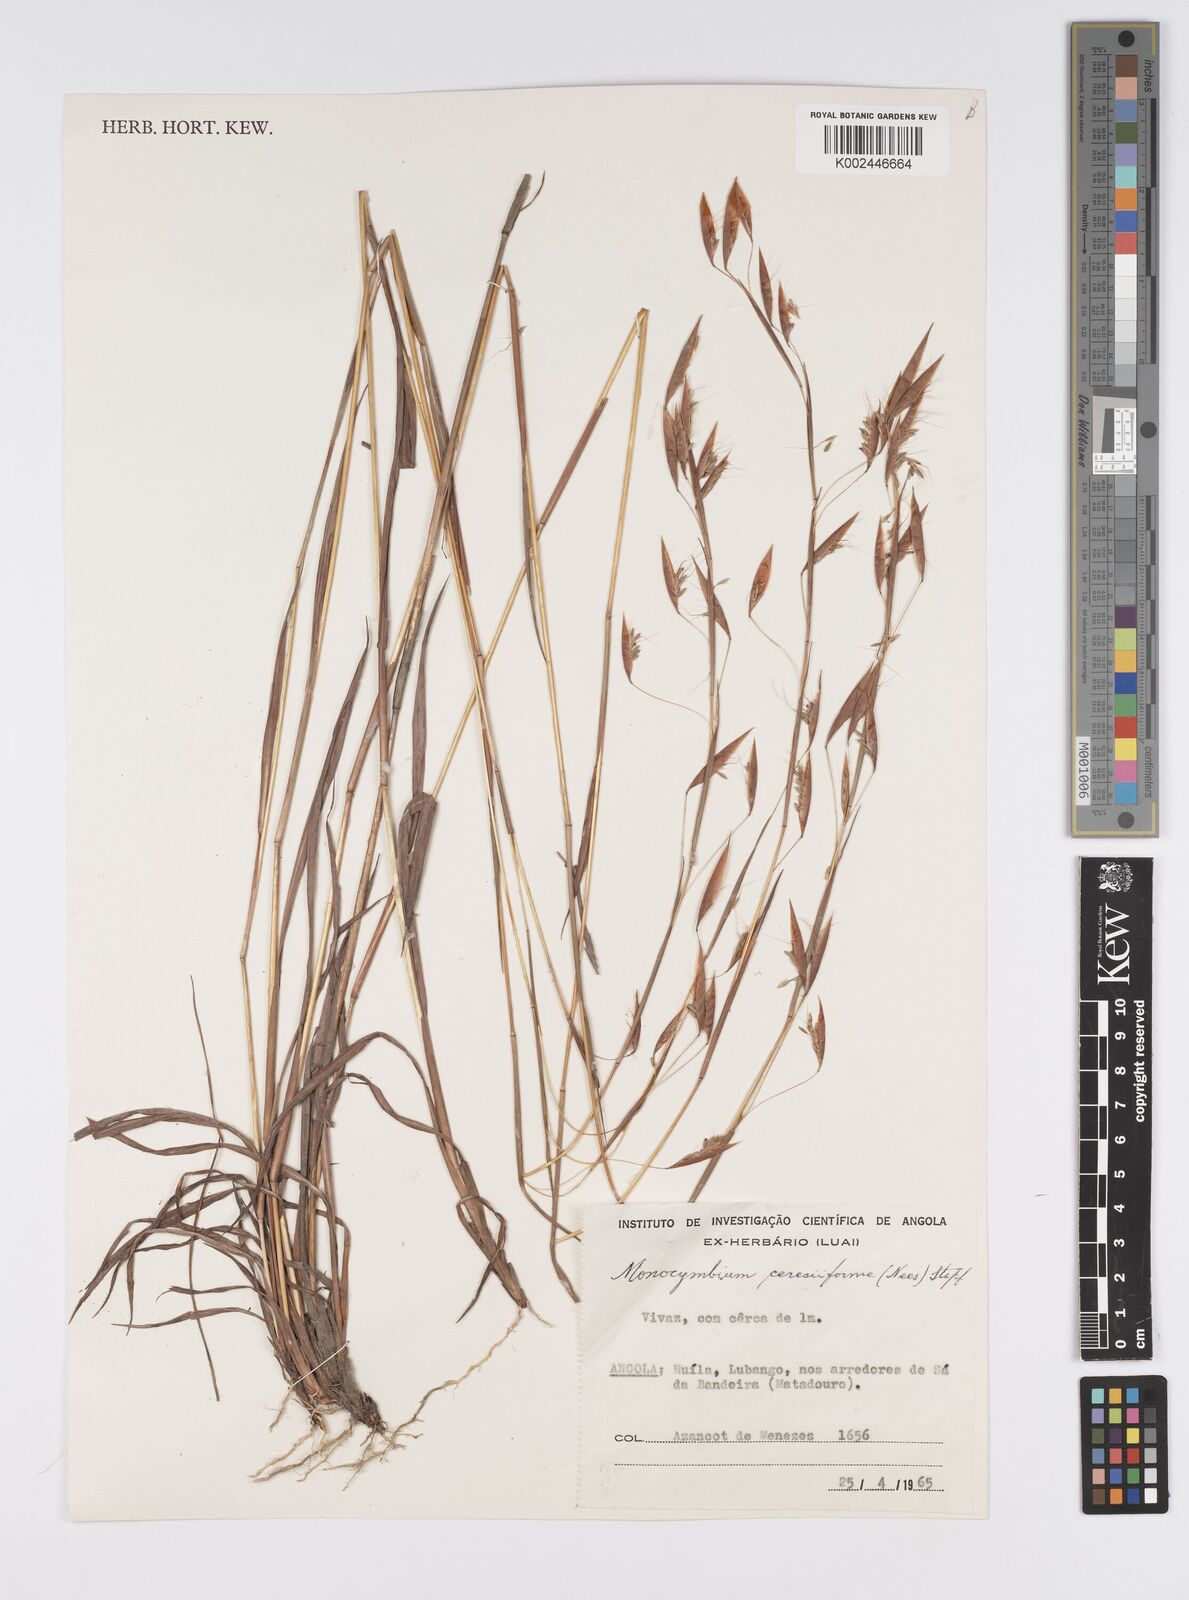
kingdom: Plantae
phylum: Tracheophyta
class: Liliopsida
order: Poales
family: Poaceae
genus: Monocymbium
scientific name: Monocymbium ceresiiforme
